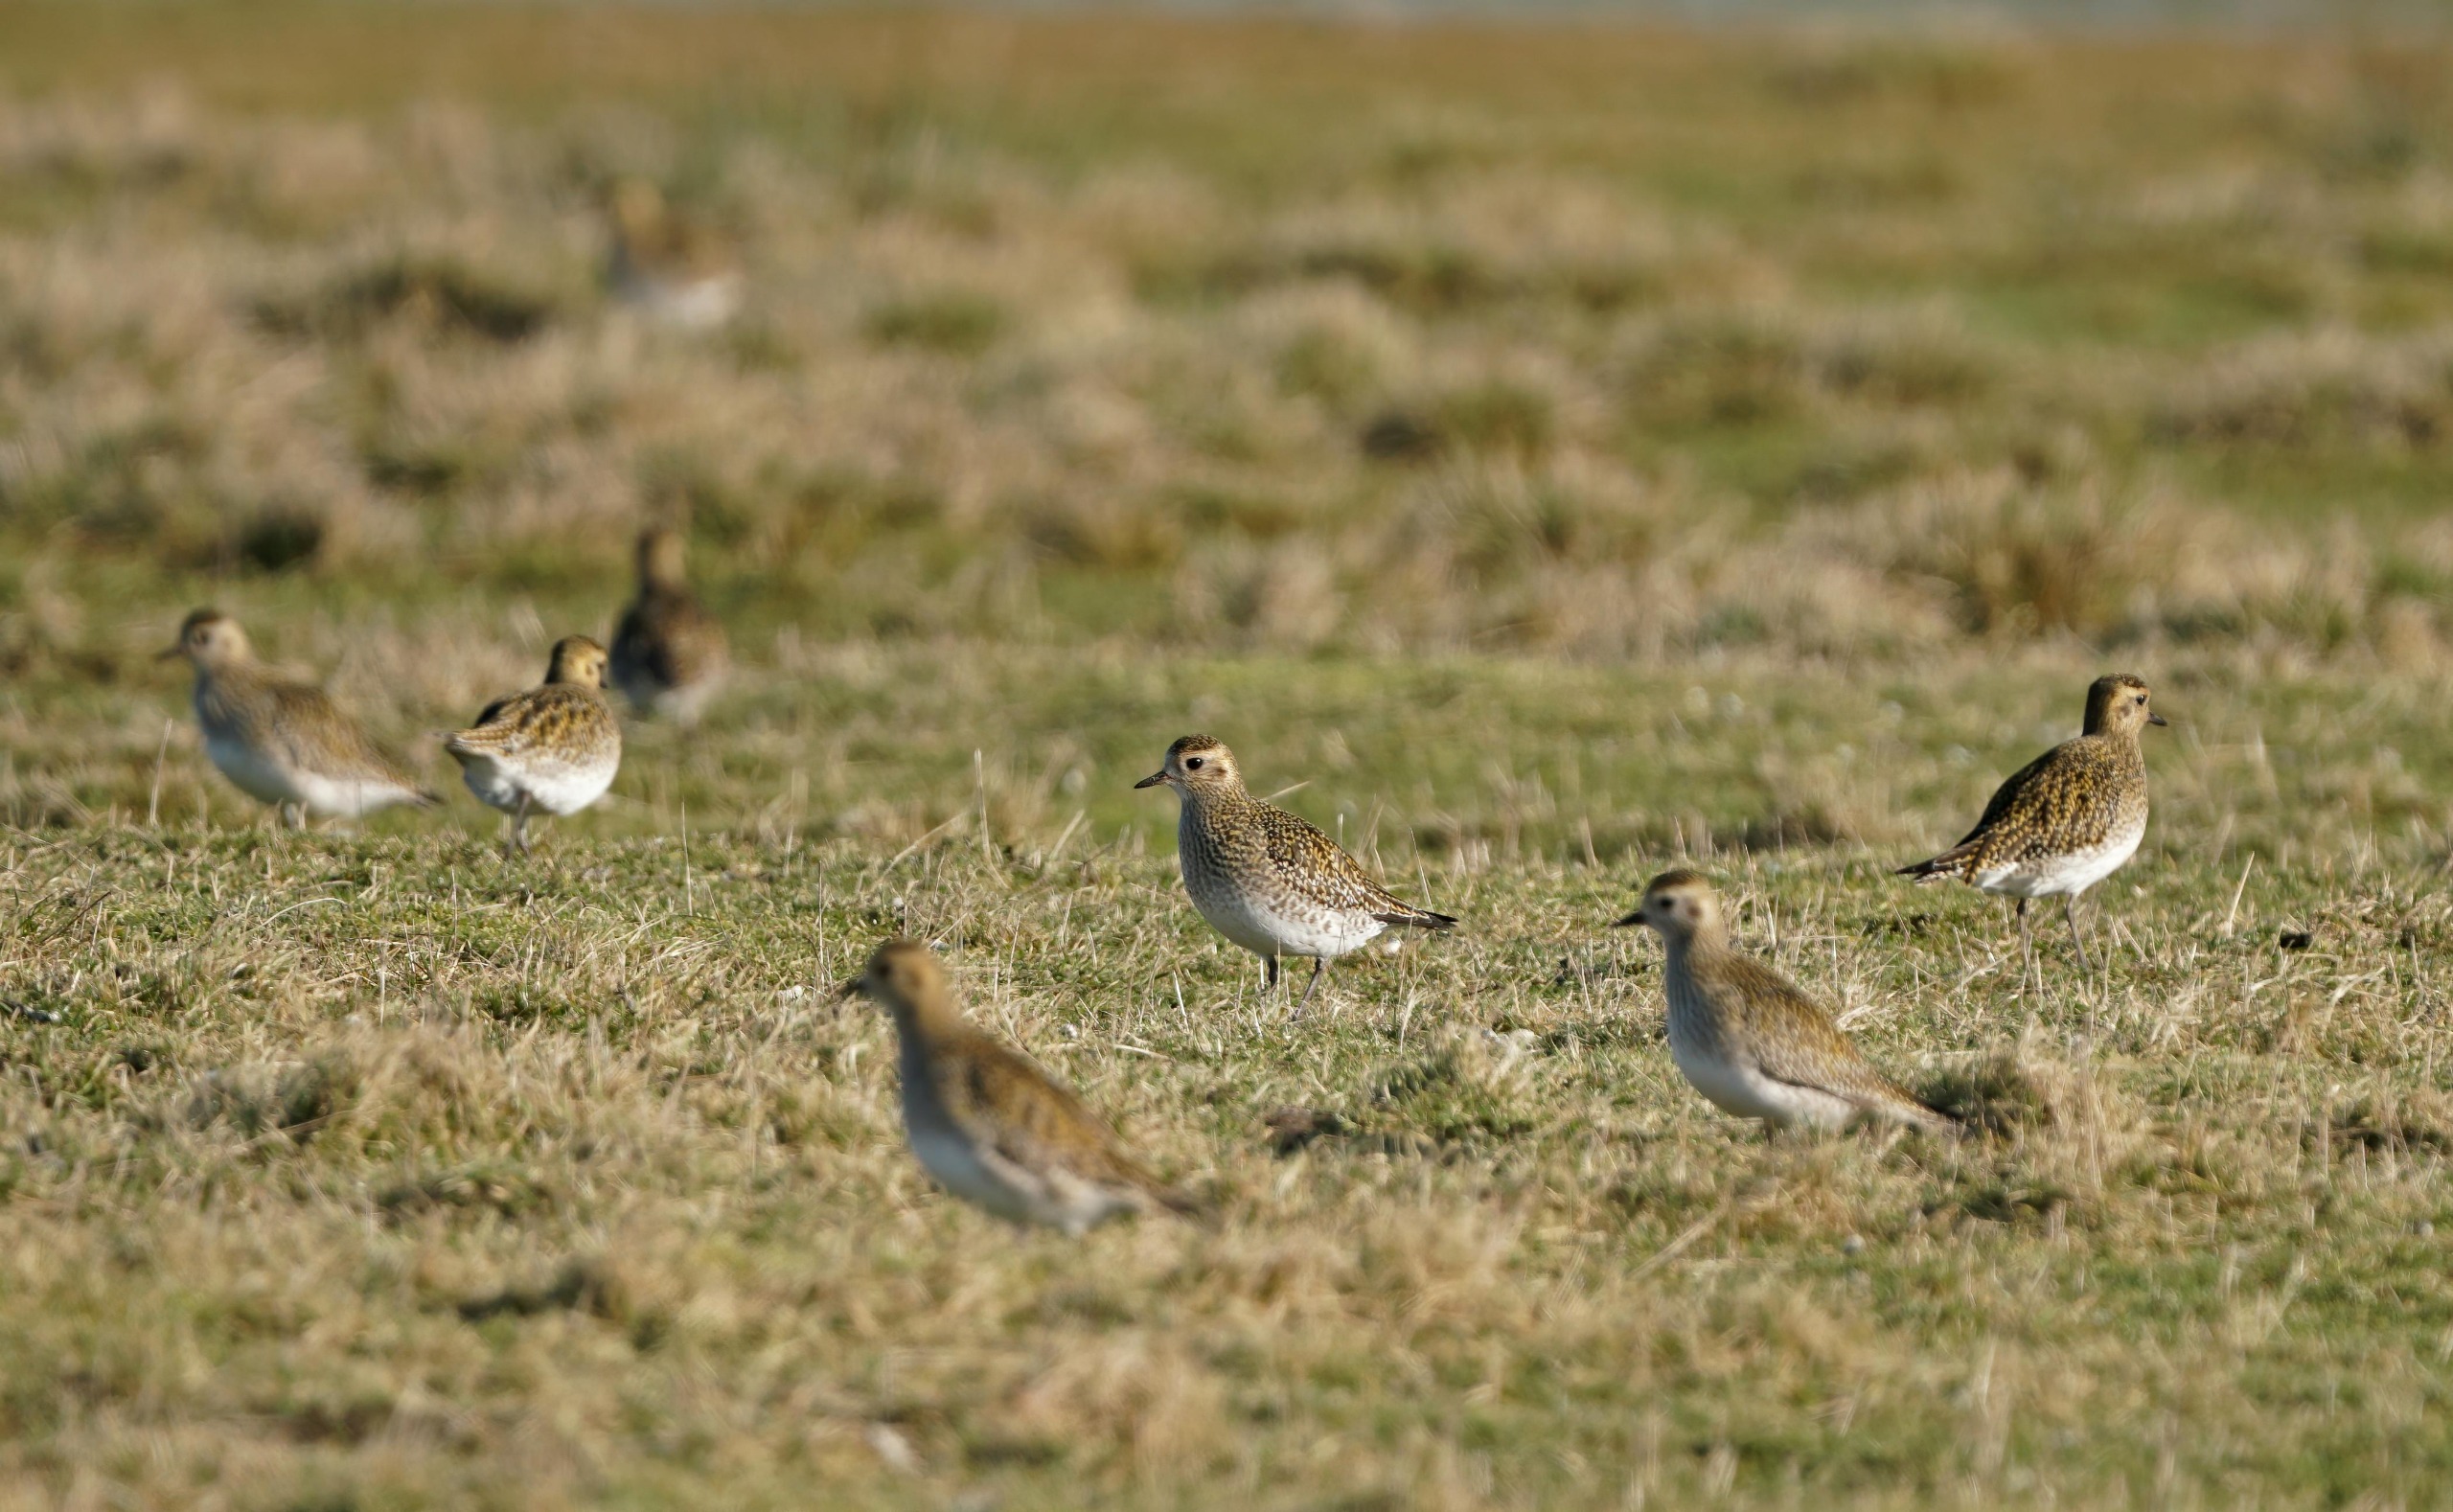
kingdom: Animalia
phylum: Chordata
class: Aves
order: Charadriiformes
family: Charadriidae
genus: Pluvialis
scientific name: Pluvialis apricaria
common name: Hjejle
